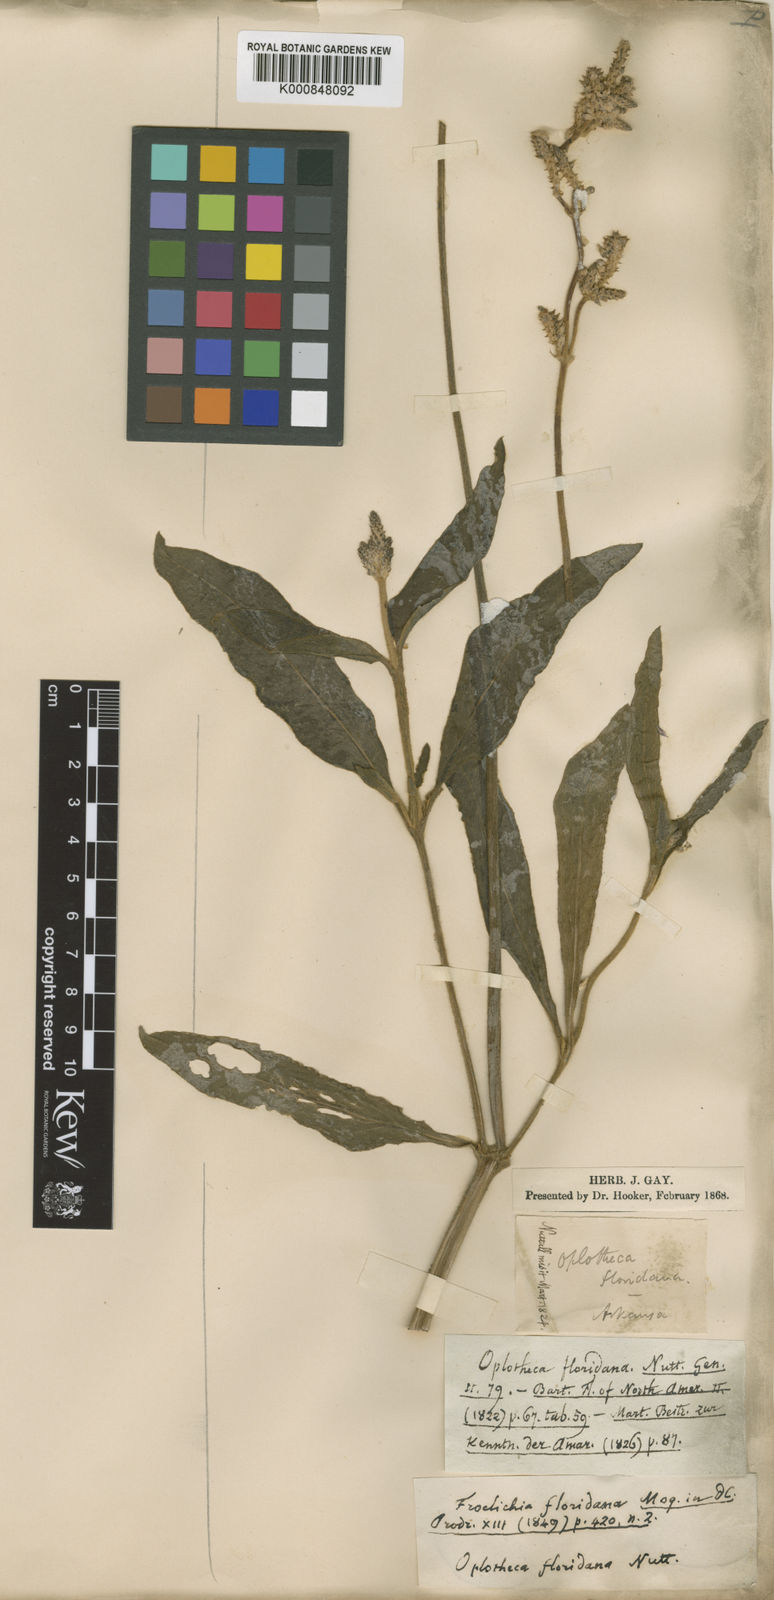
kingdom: Plantae
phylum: Tracheophyta
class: Magnoliopsida
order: Caryophyllales
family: Amaranthaceae
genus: Froelichia
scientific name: Froelichia floridana
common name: Florida snake-cotton
